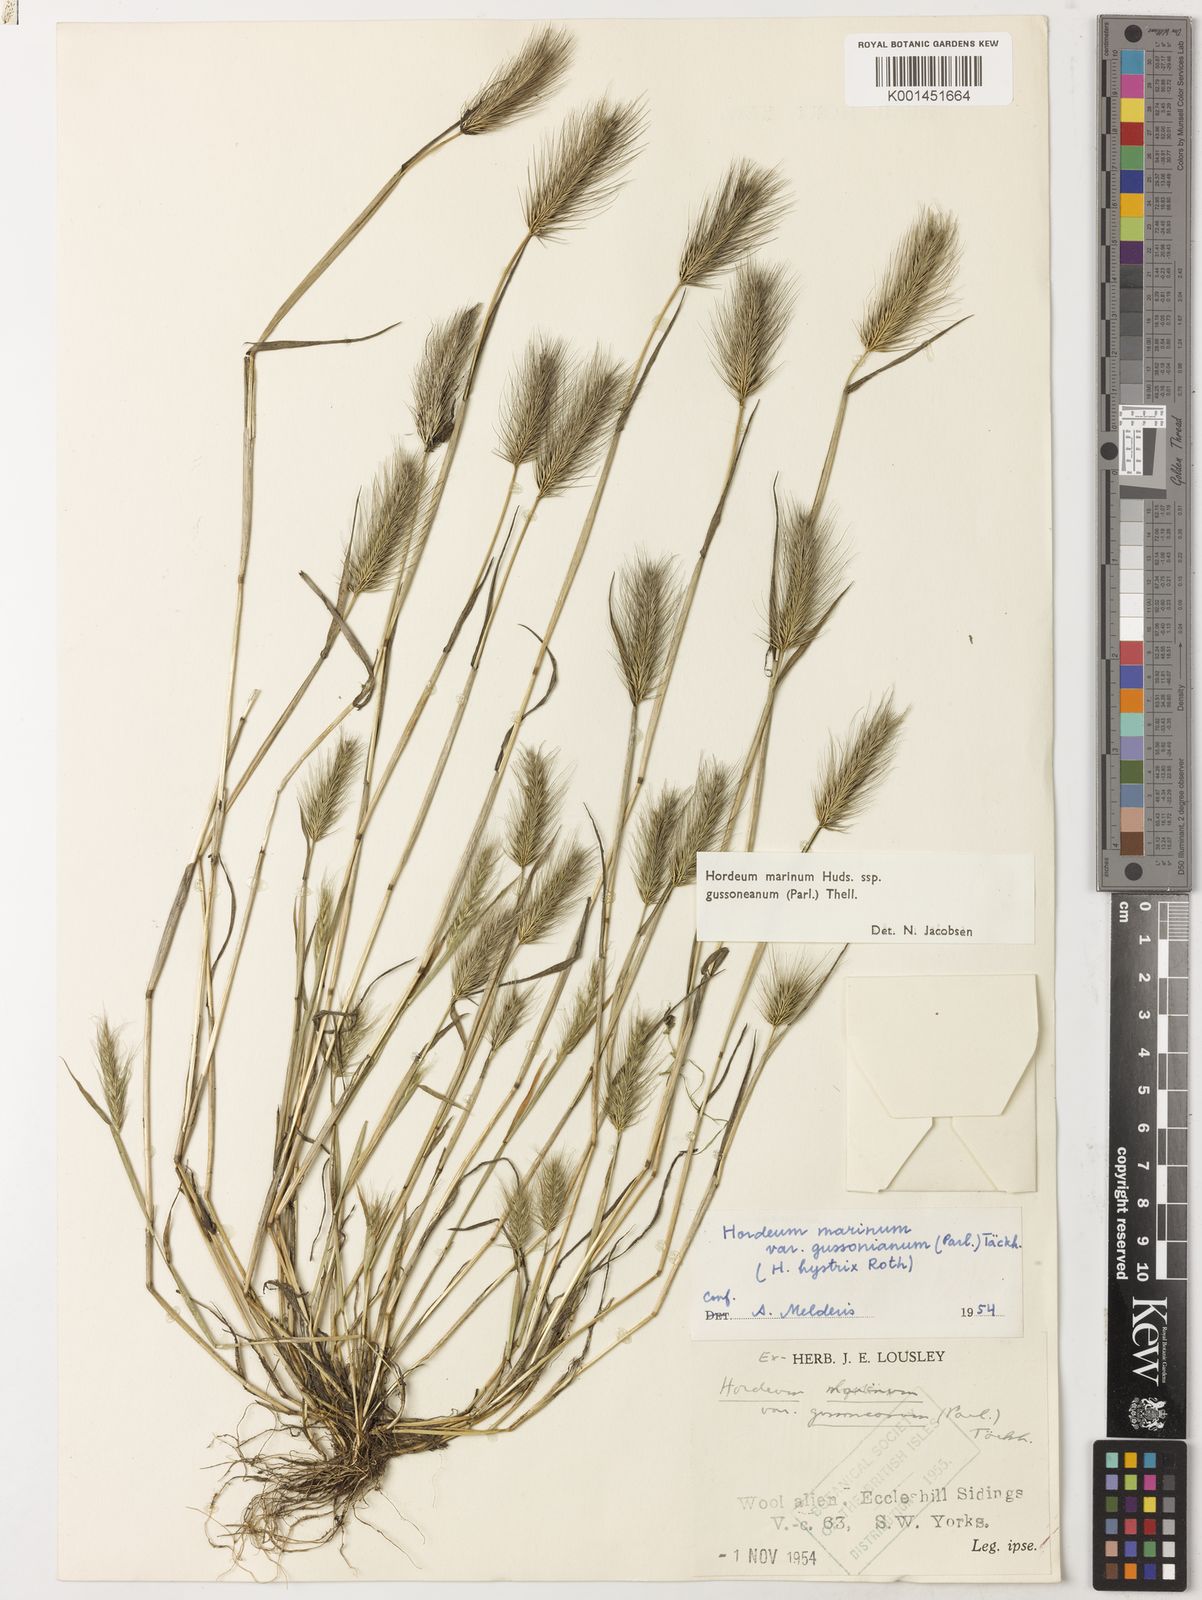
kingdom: Plantae
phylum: Tracheophyta
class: Liliopsida
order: Poales
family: Poaceae
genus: Hordeum
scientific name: Hordeum marinum
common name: Sea barley
